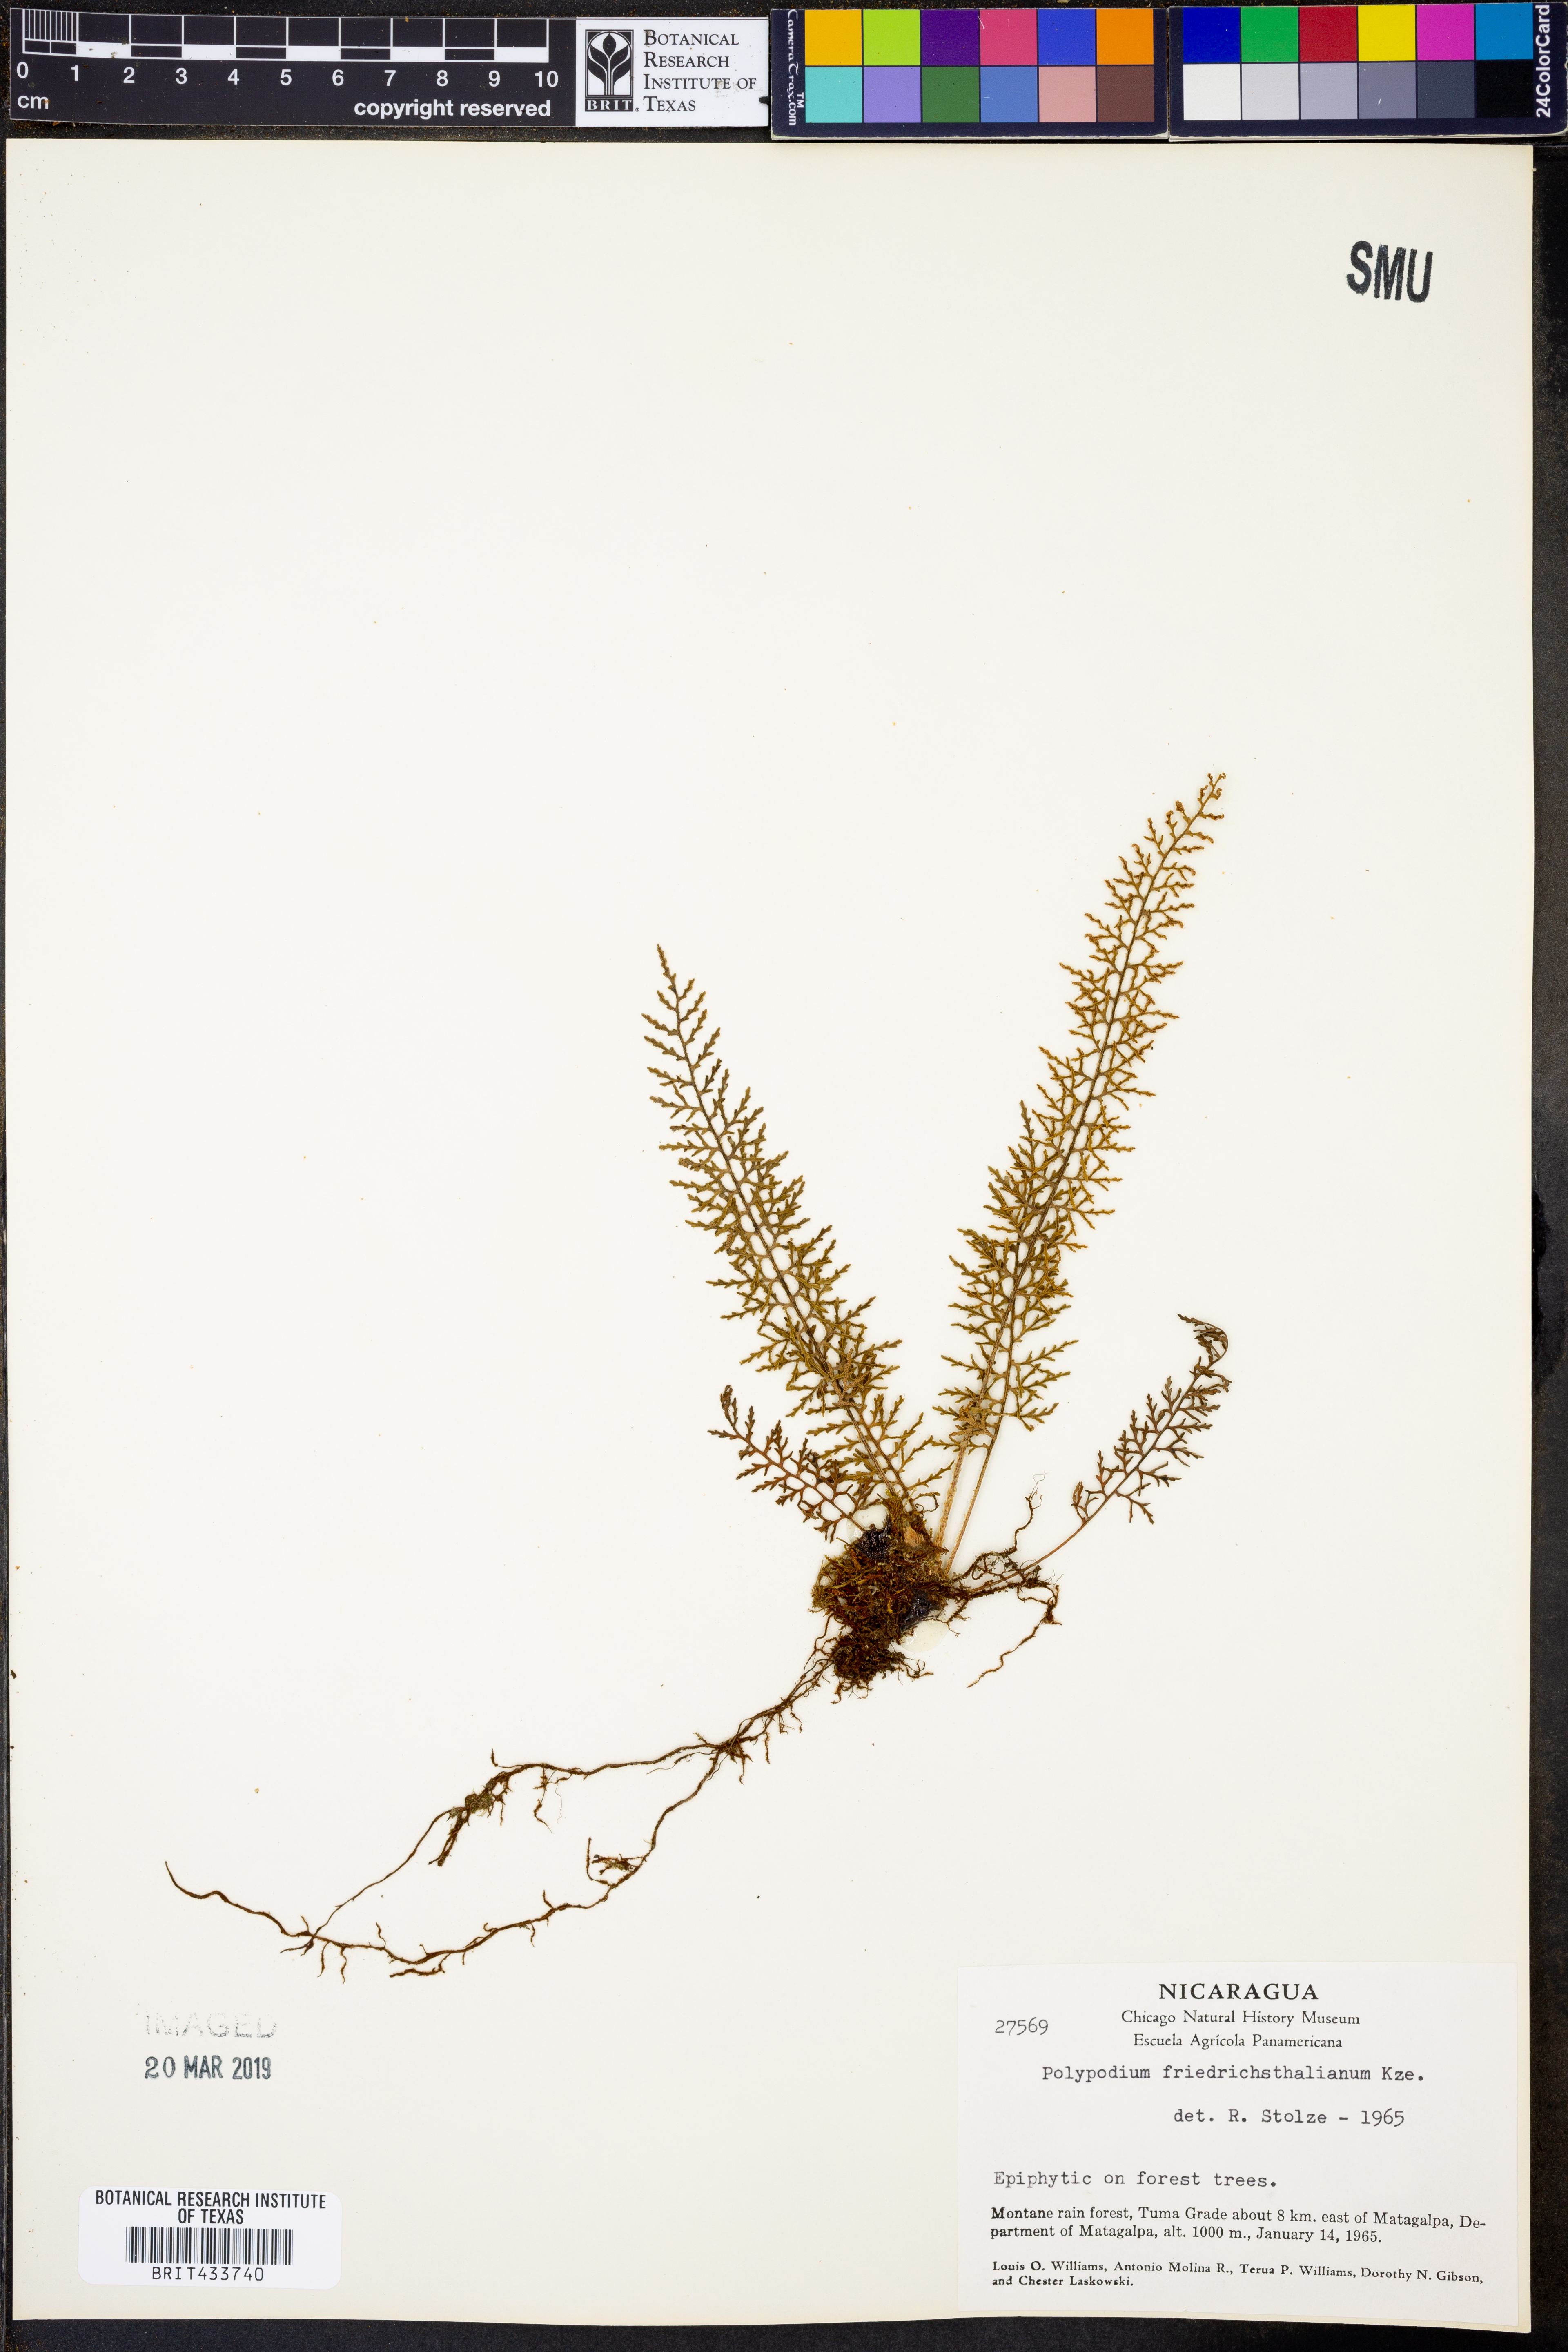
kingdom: Plantae
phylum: Tracheophyta
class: Polypodiopsida
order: Polypodiales
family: Polypodiaceae
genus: Pleopeltis
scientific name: Pleopeltis friedrichsthaliana
